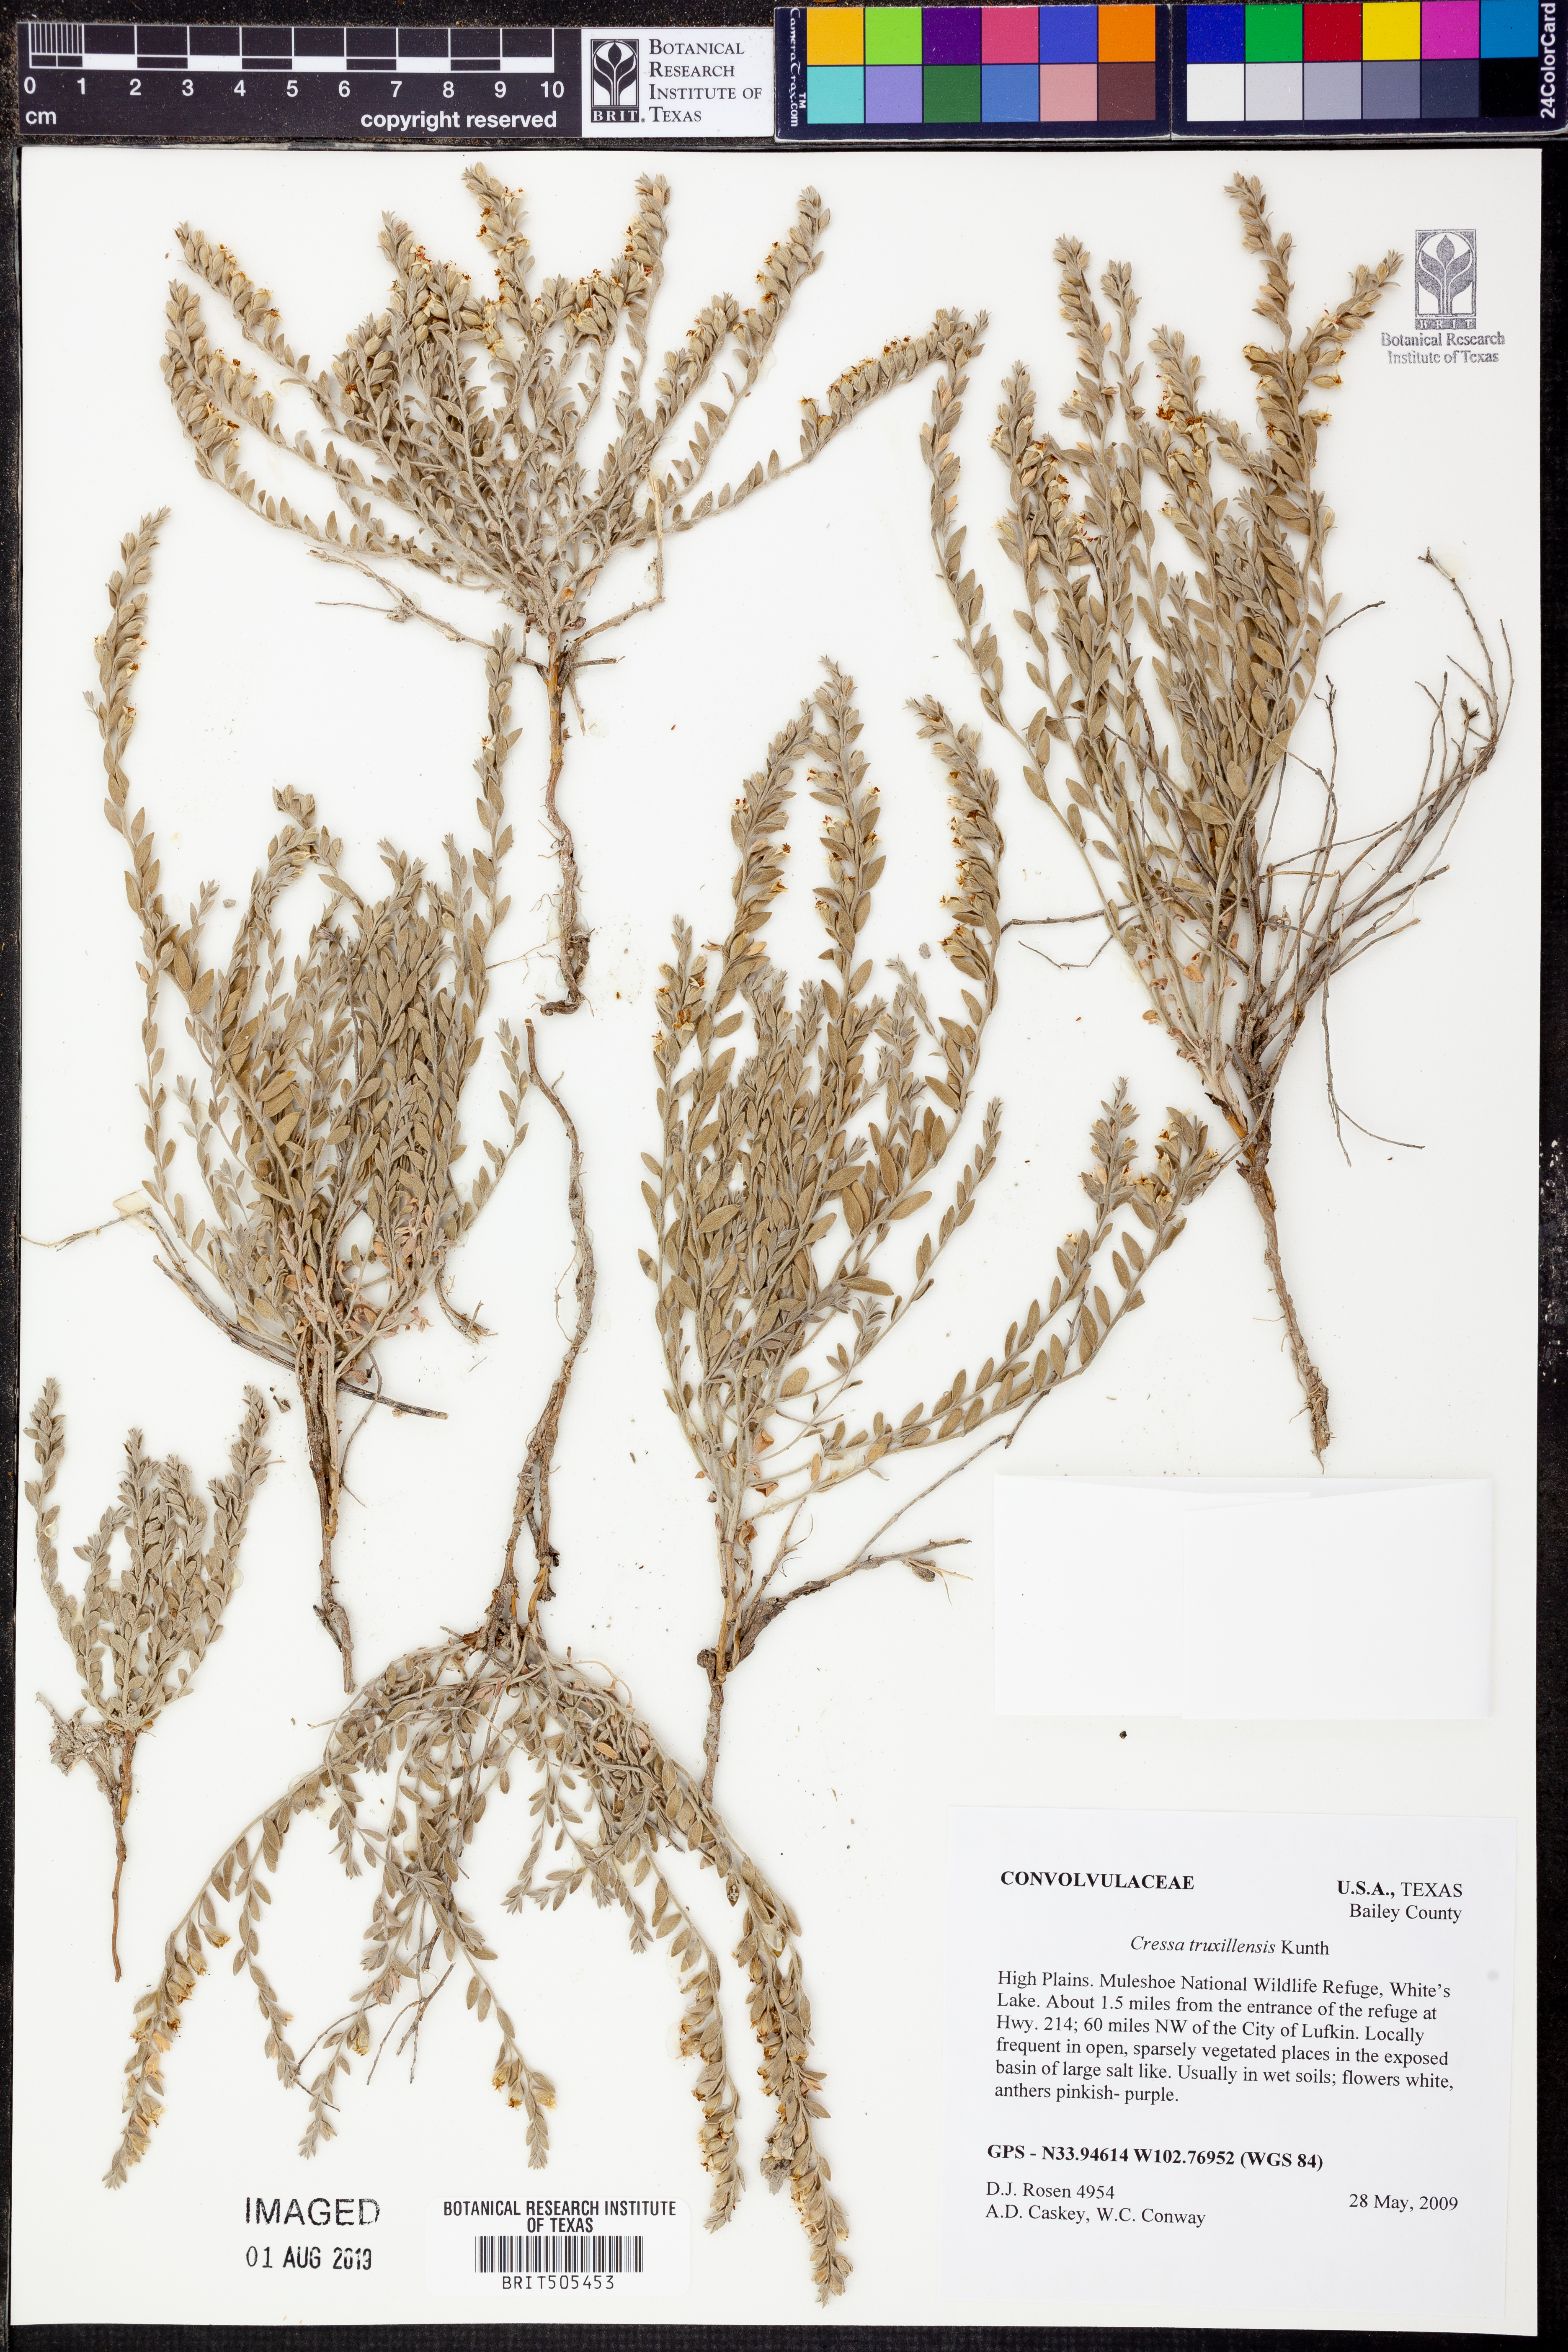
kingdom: Plantae
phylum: Tracheophyta
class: Magnoliopsida
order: Solanales
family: Convolvulaceae
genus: Cressa
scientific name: Cressa truxillensis
